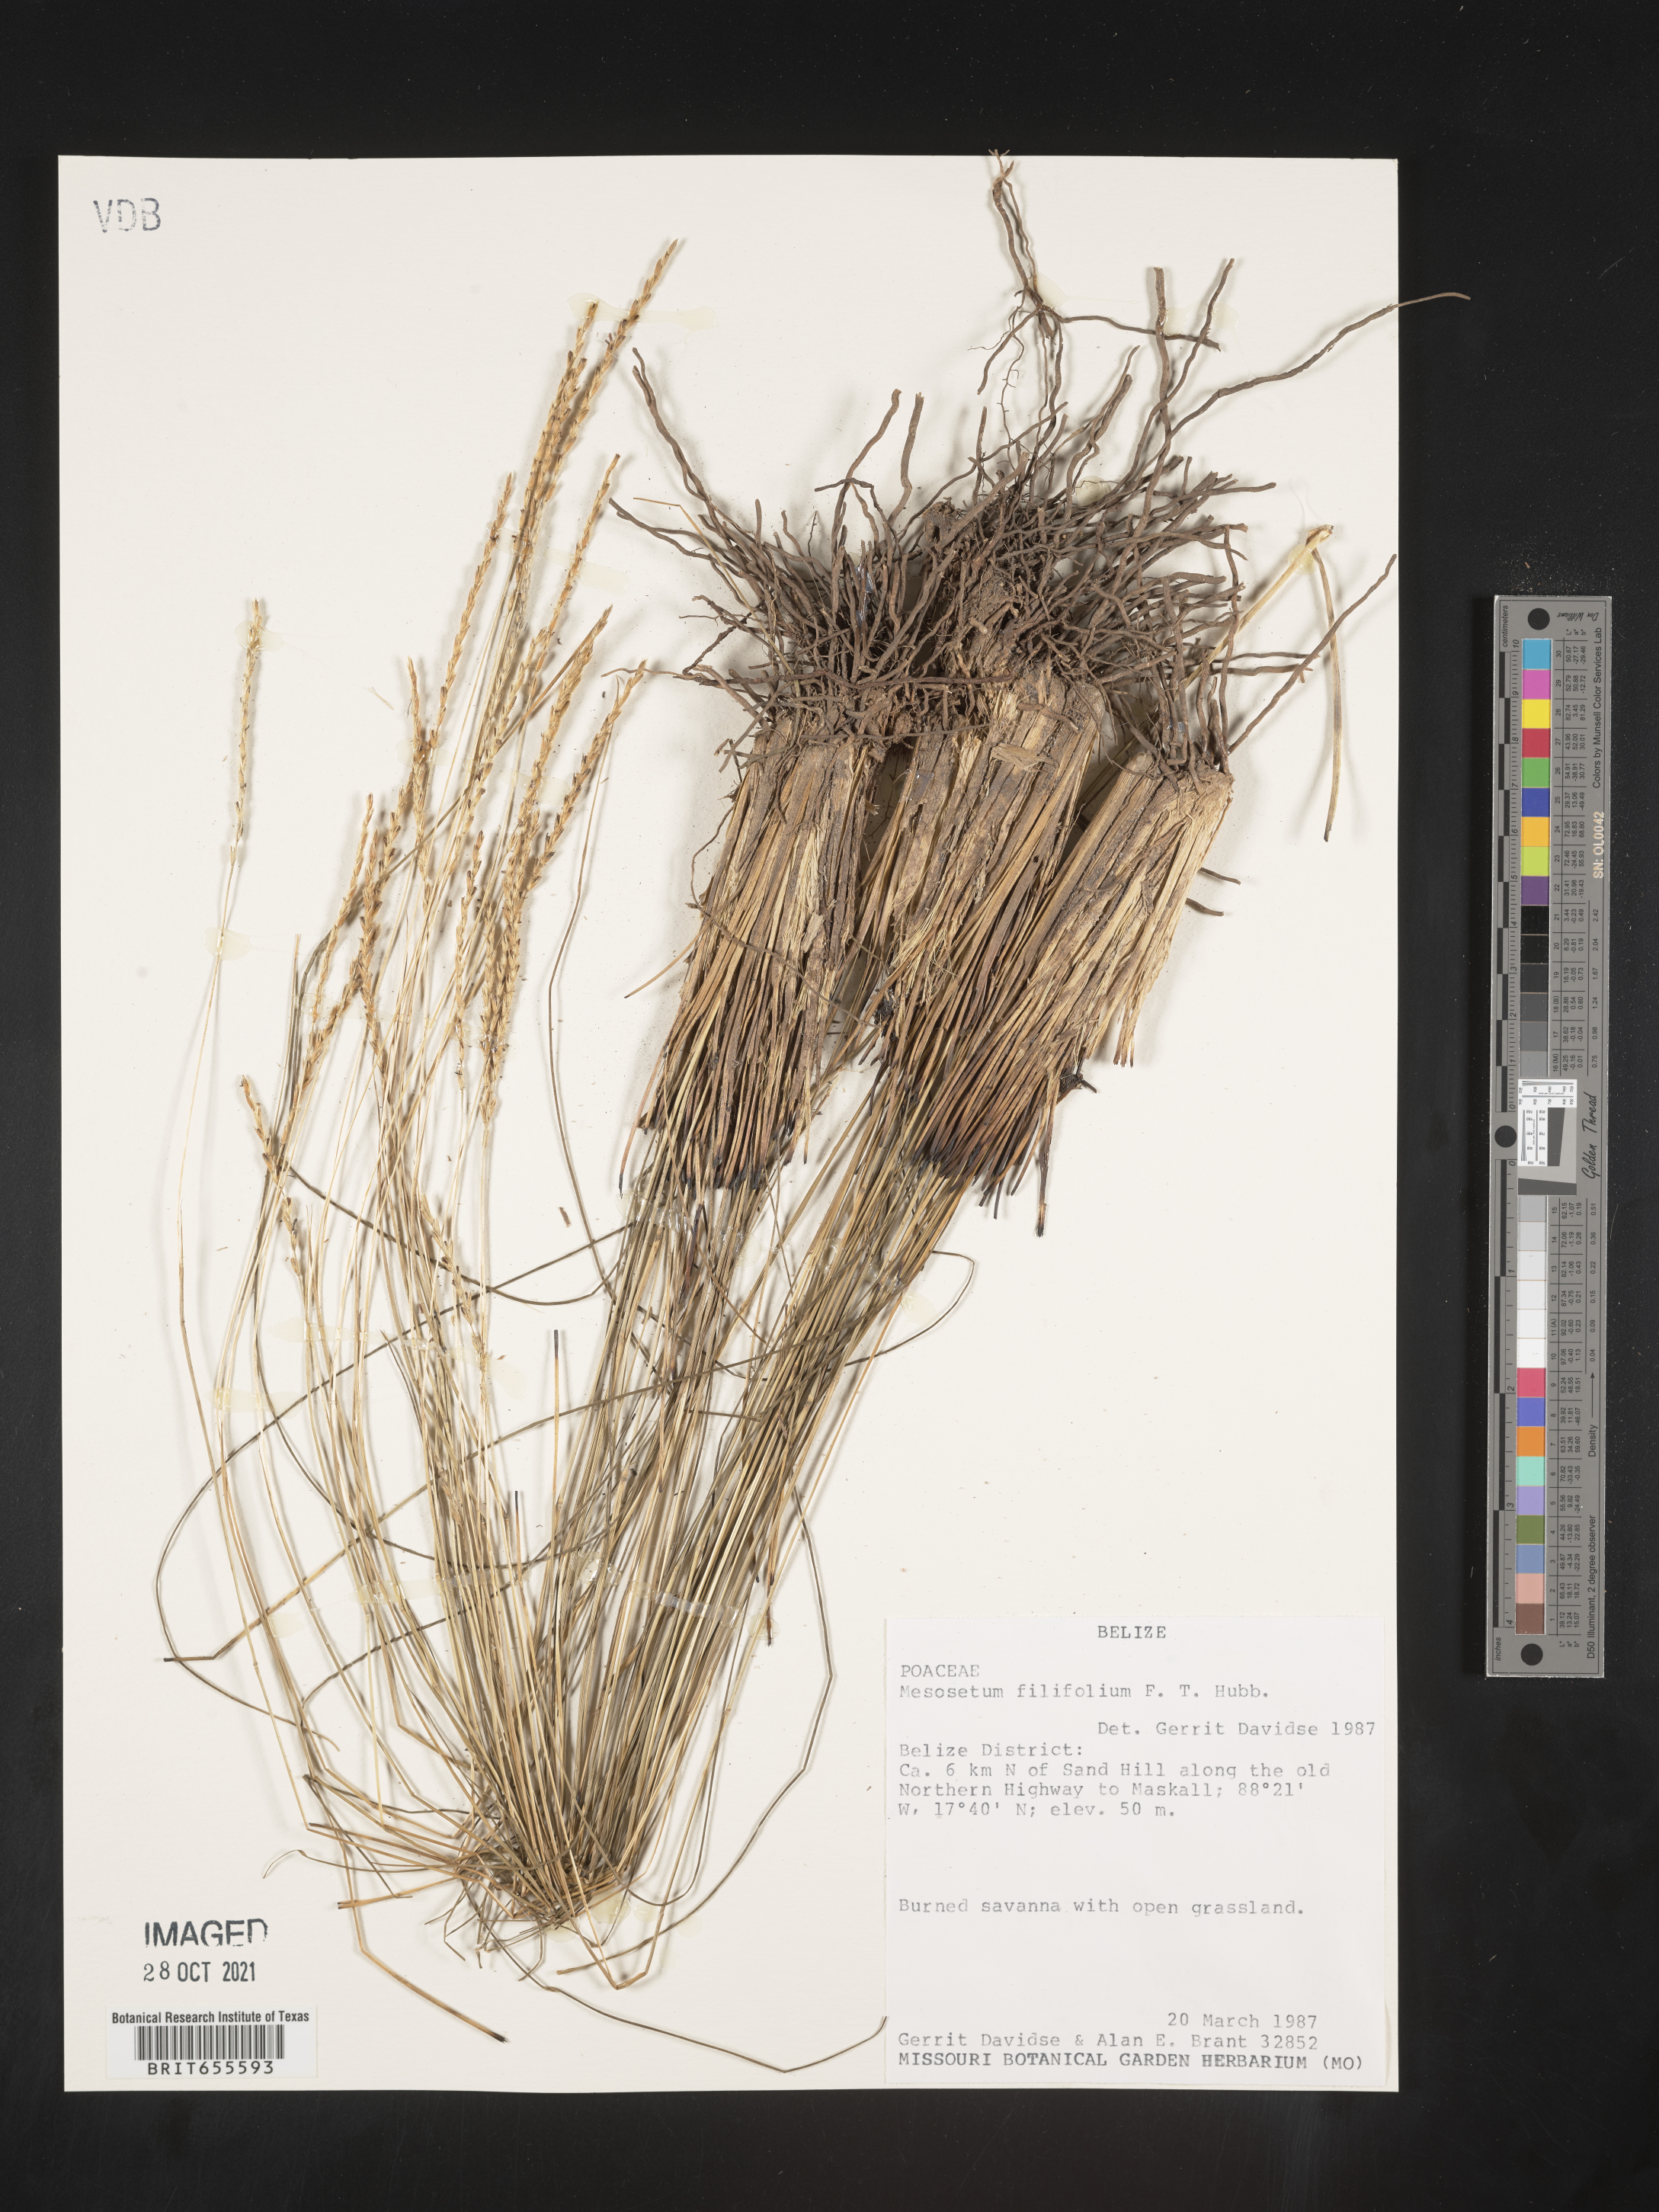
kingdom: Plantae
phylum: Tracheophyta
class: Liliopsida
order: Poales
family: Poaceae
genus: Mesosetum
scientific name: Mesosetum
